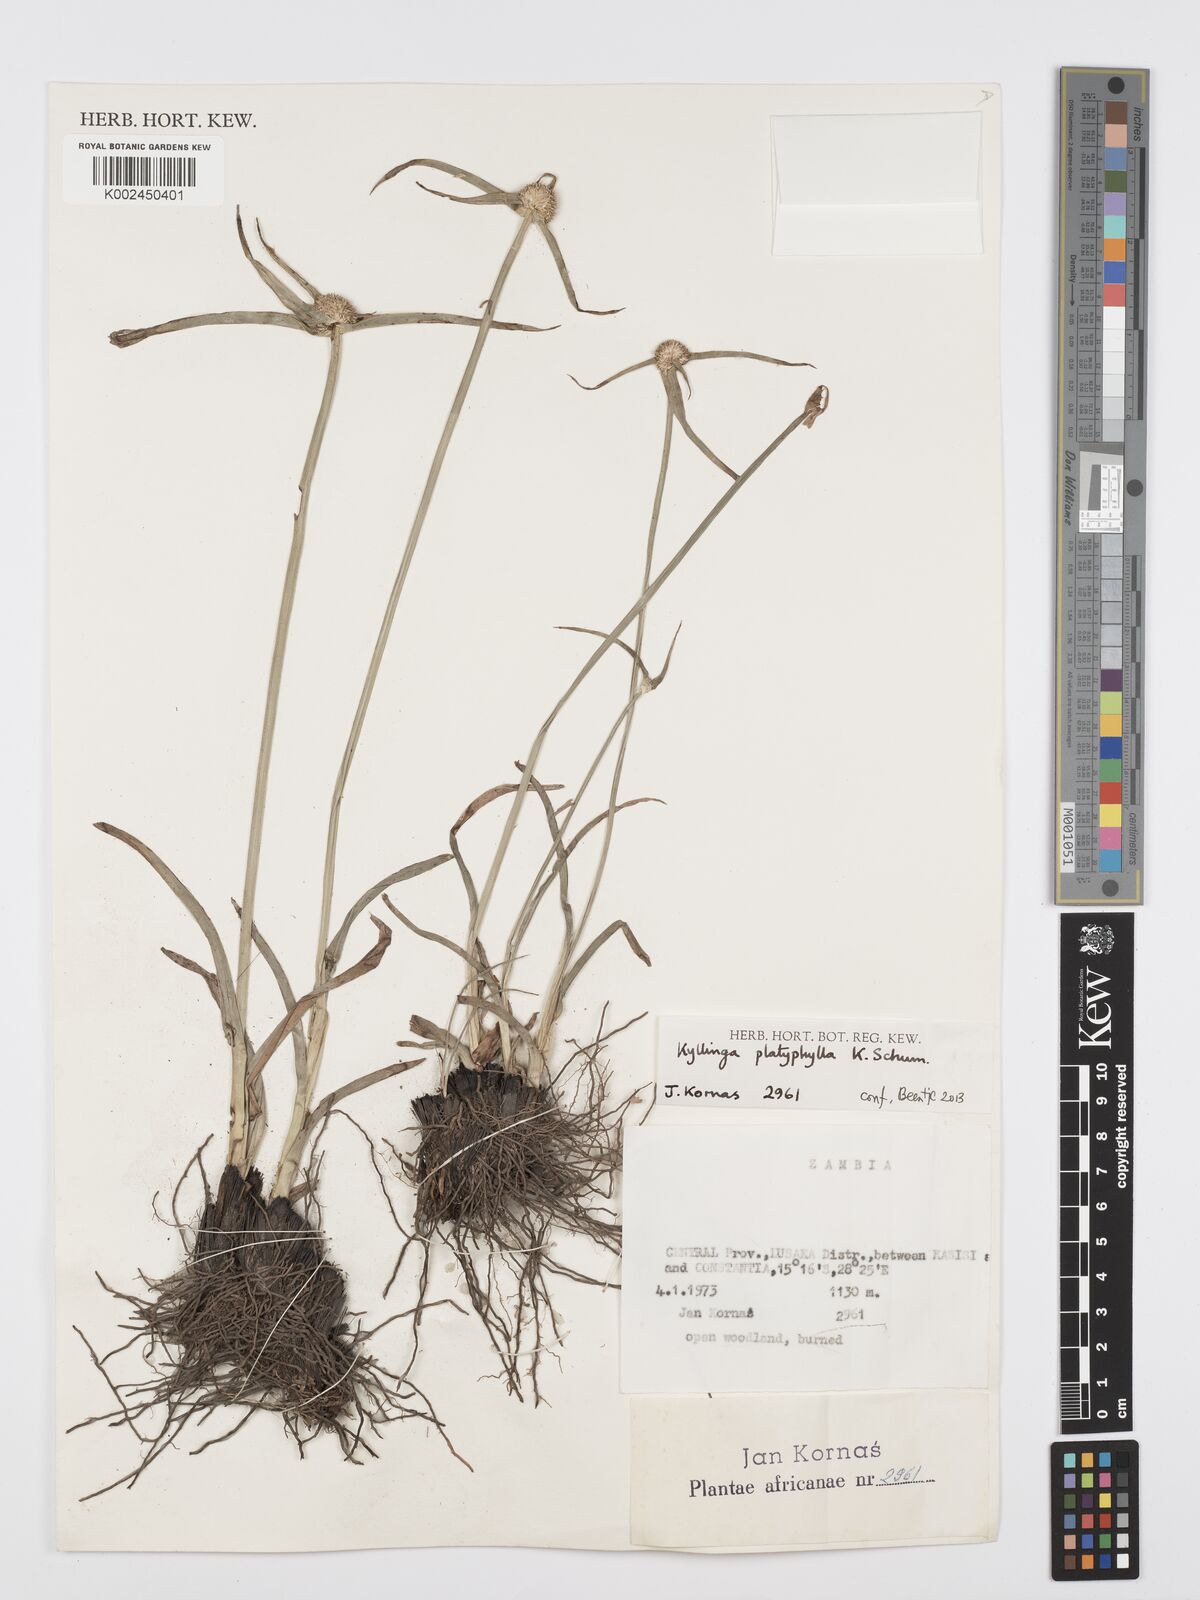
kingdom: Plantae
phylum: Tracheophyta
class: Liliopsida
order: Poales
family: Cyperaceae
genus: Cyperus
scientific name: Cyperus
